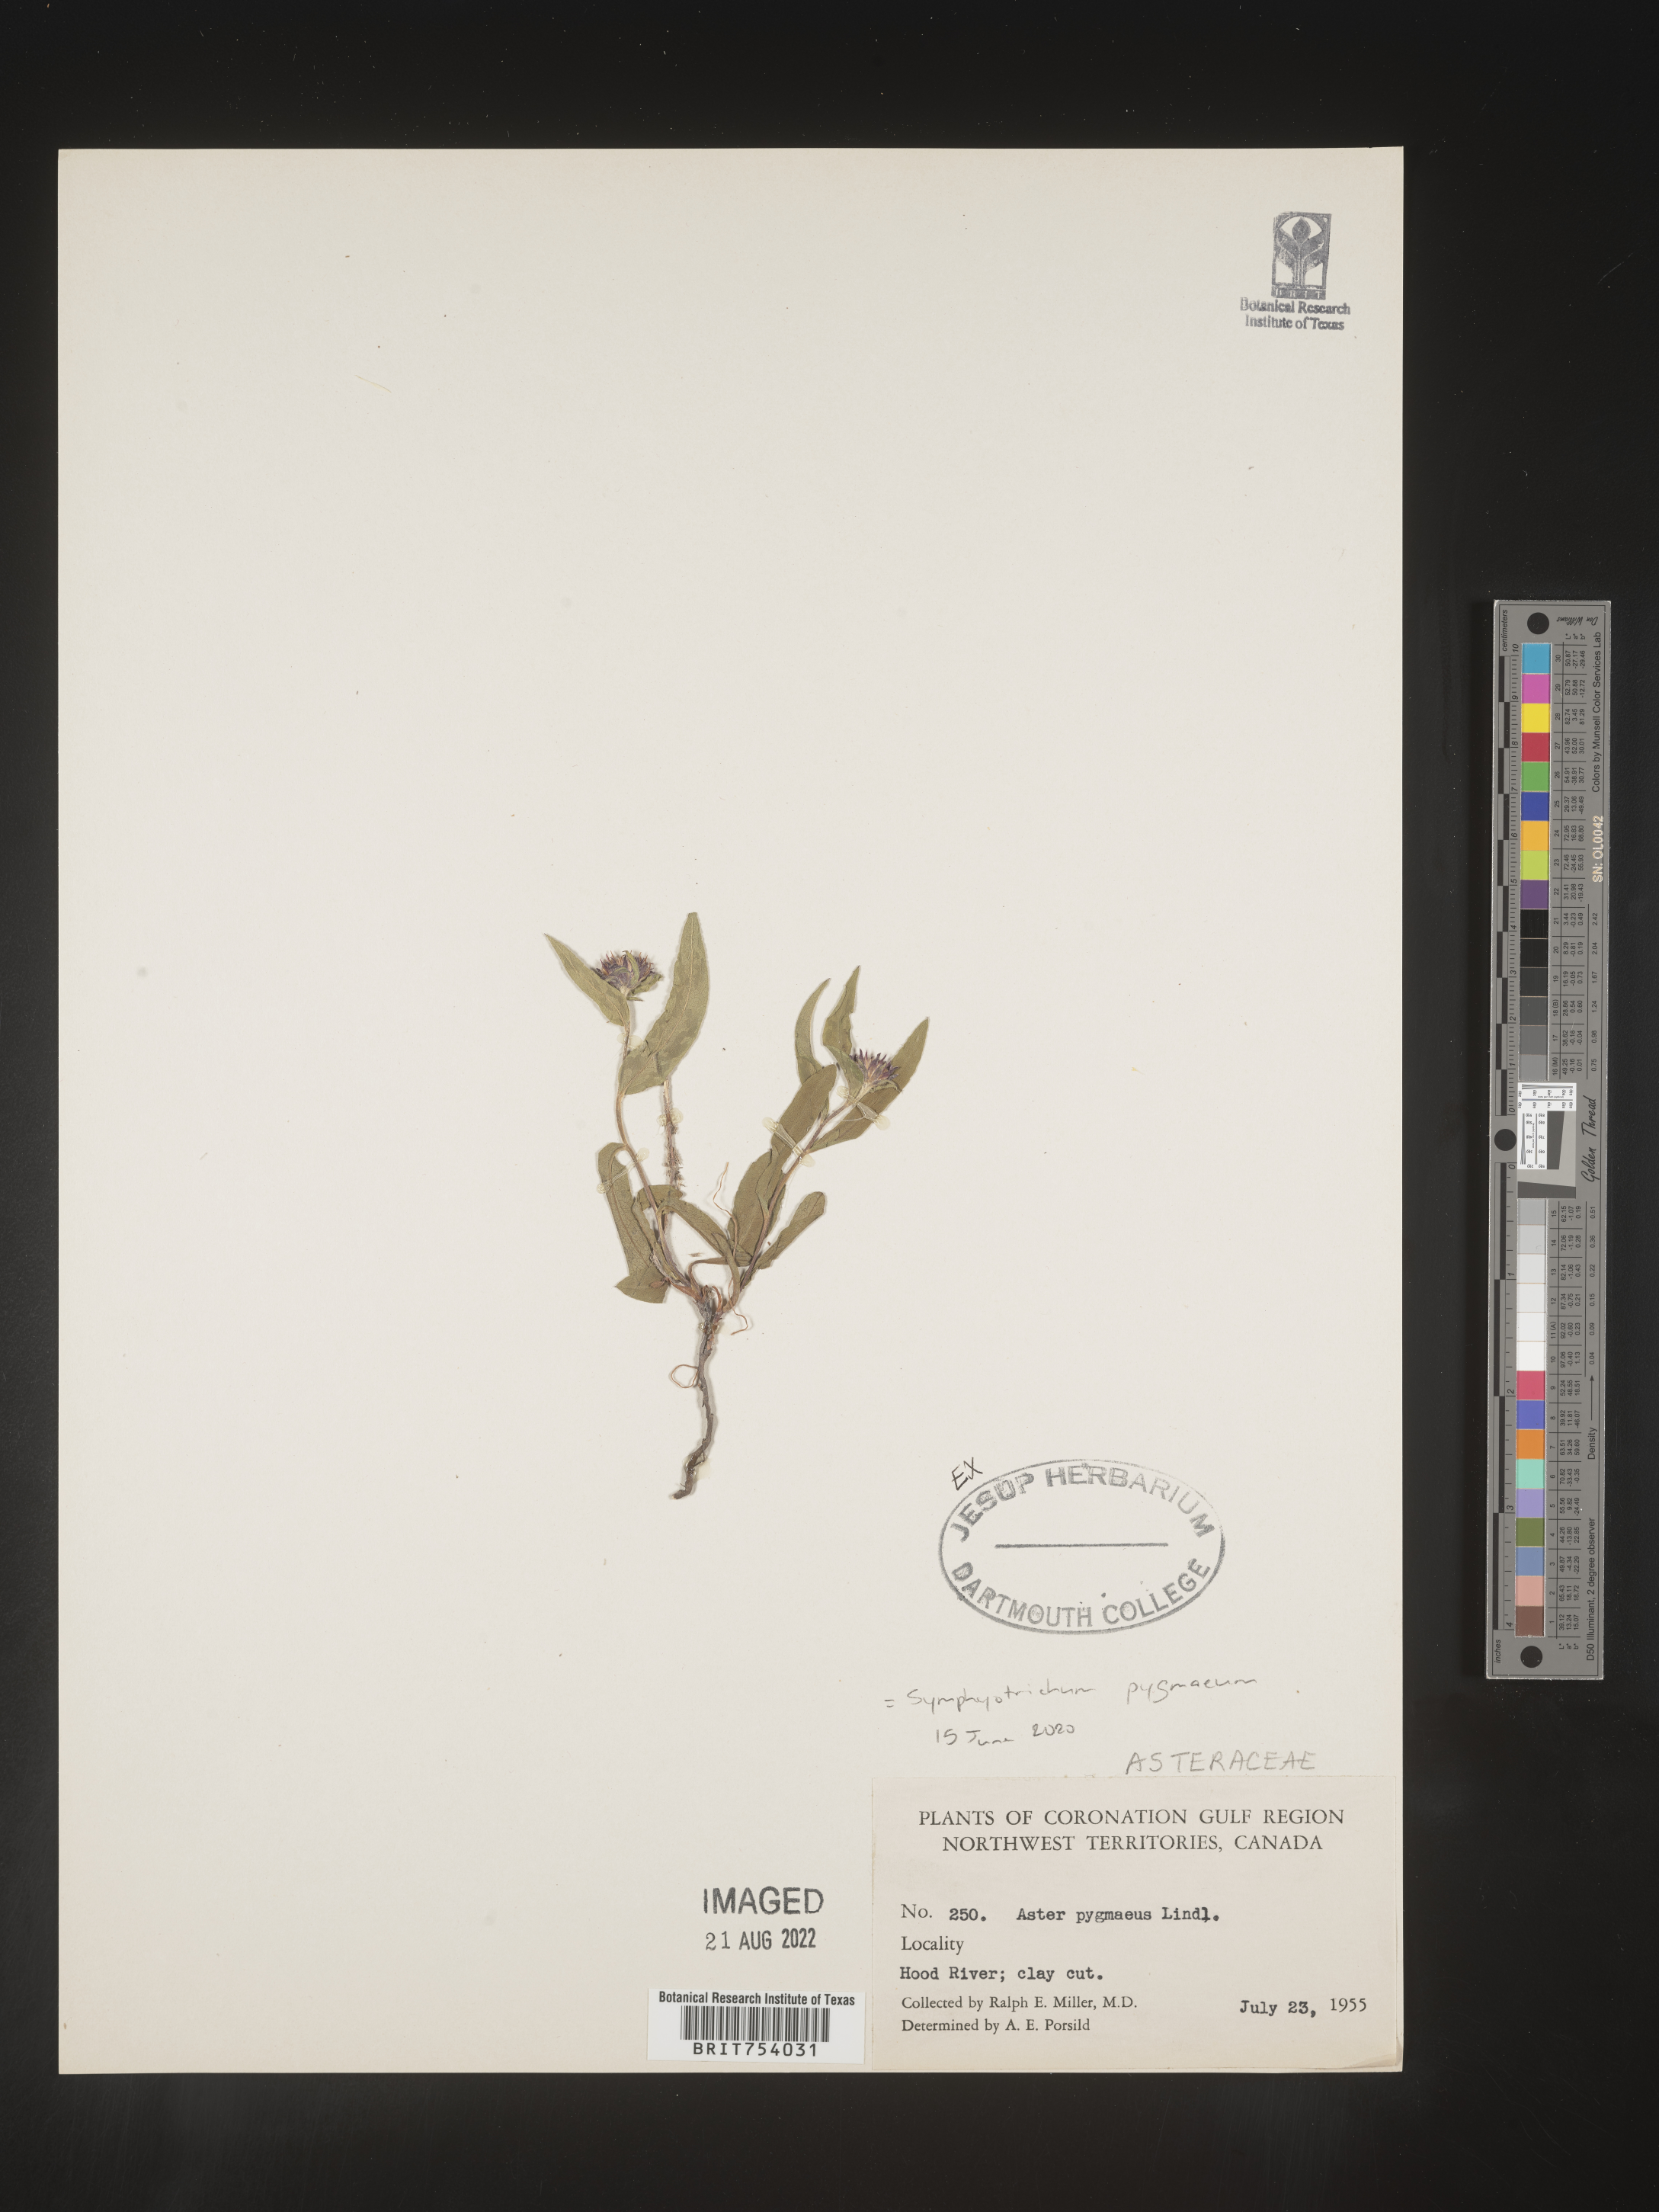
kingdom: Plantae
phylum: Tracheophyta
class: Magnoliopsida
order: Asterales
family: Asteraceae
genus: Symphyotrichum
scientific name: Symphyotrichum pygmaeum
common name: Pygmy aster
